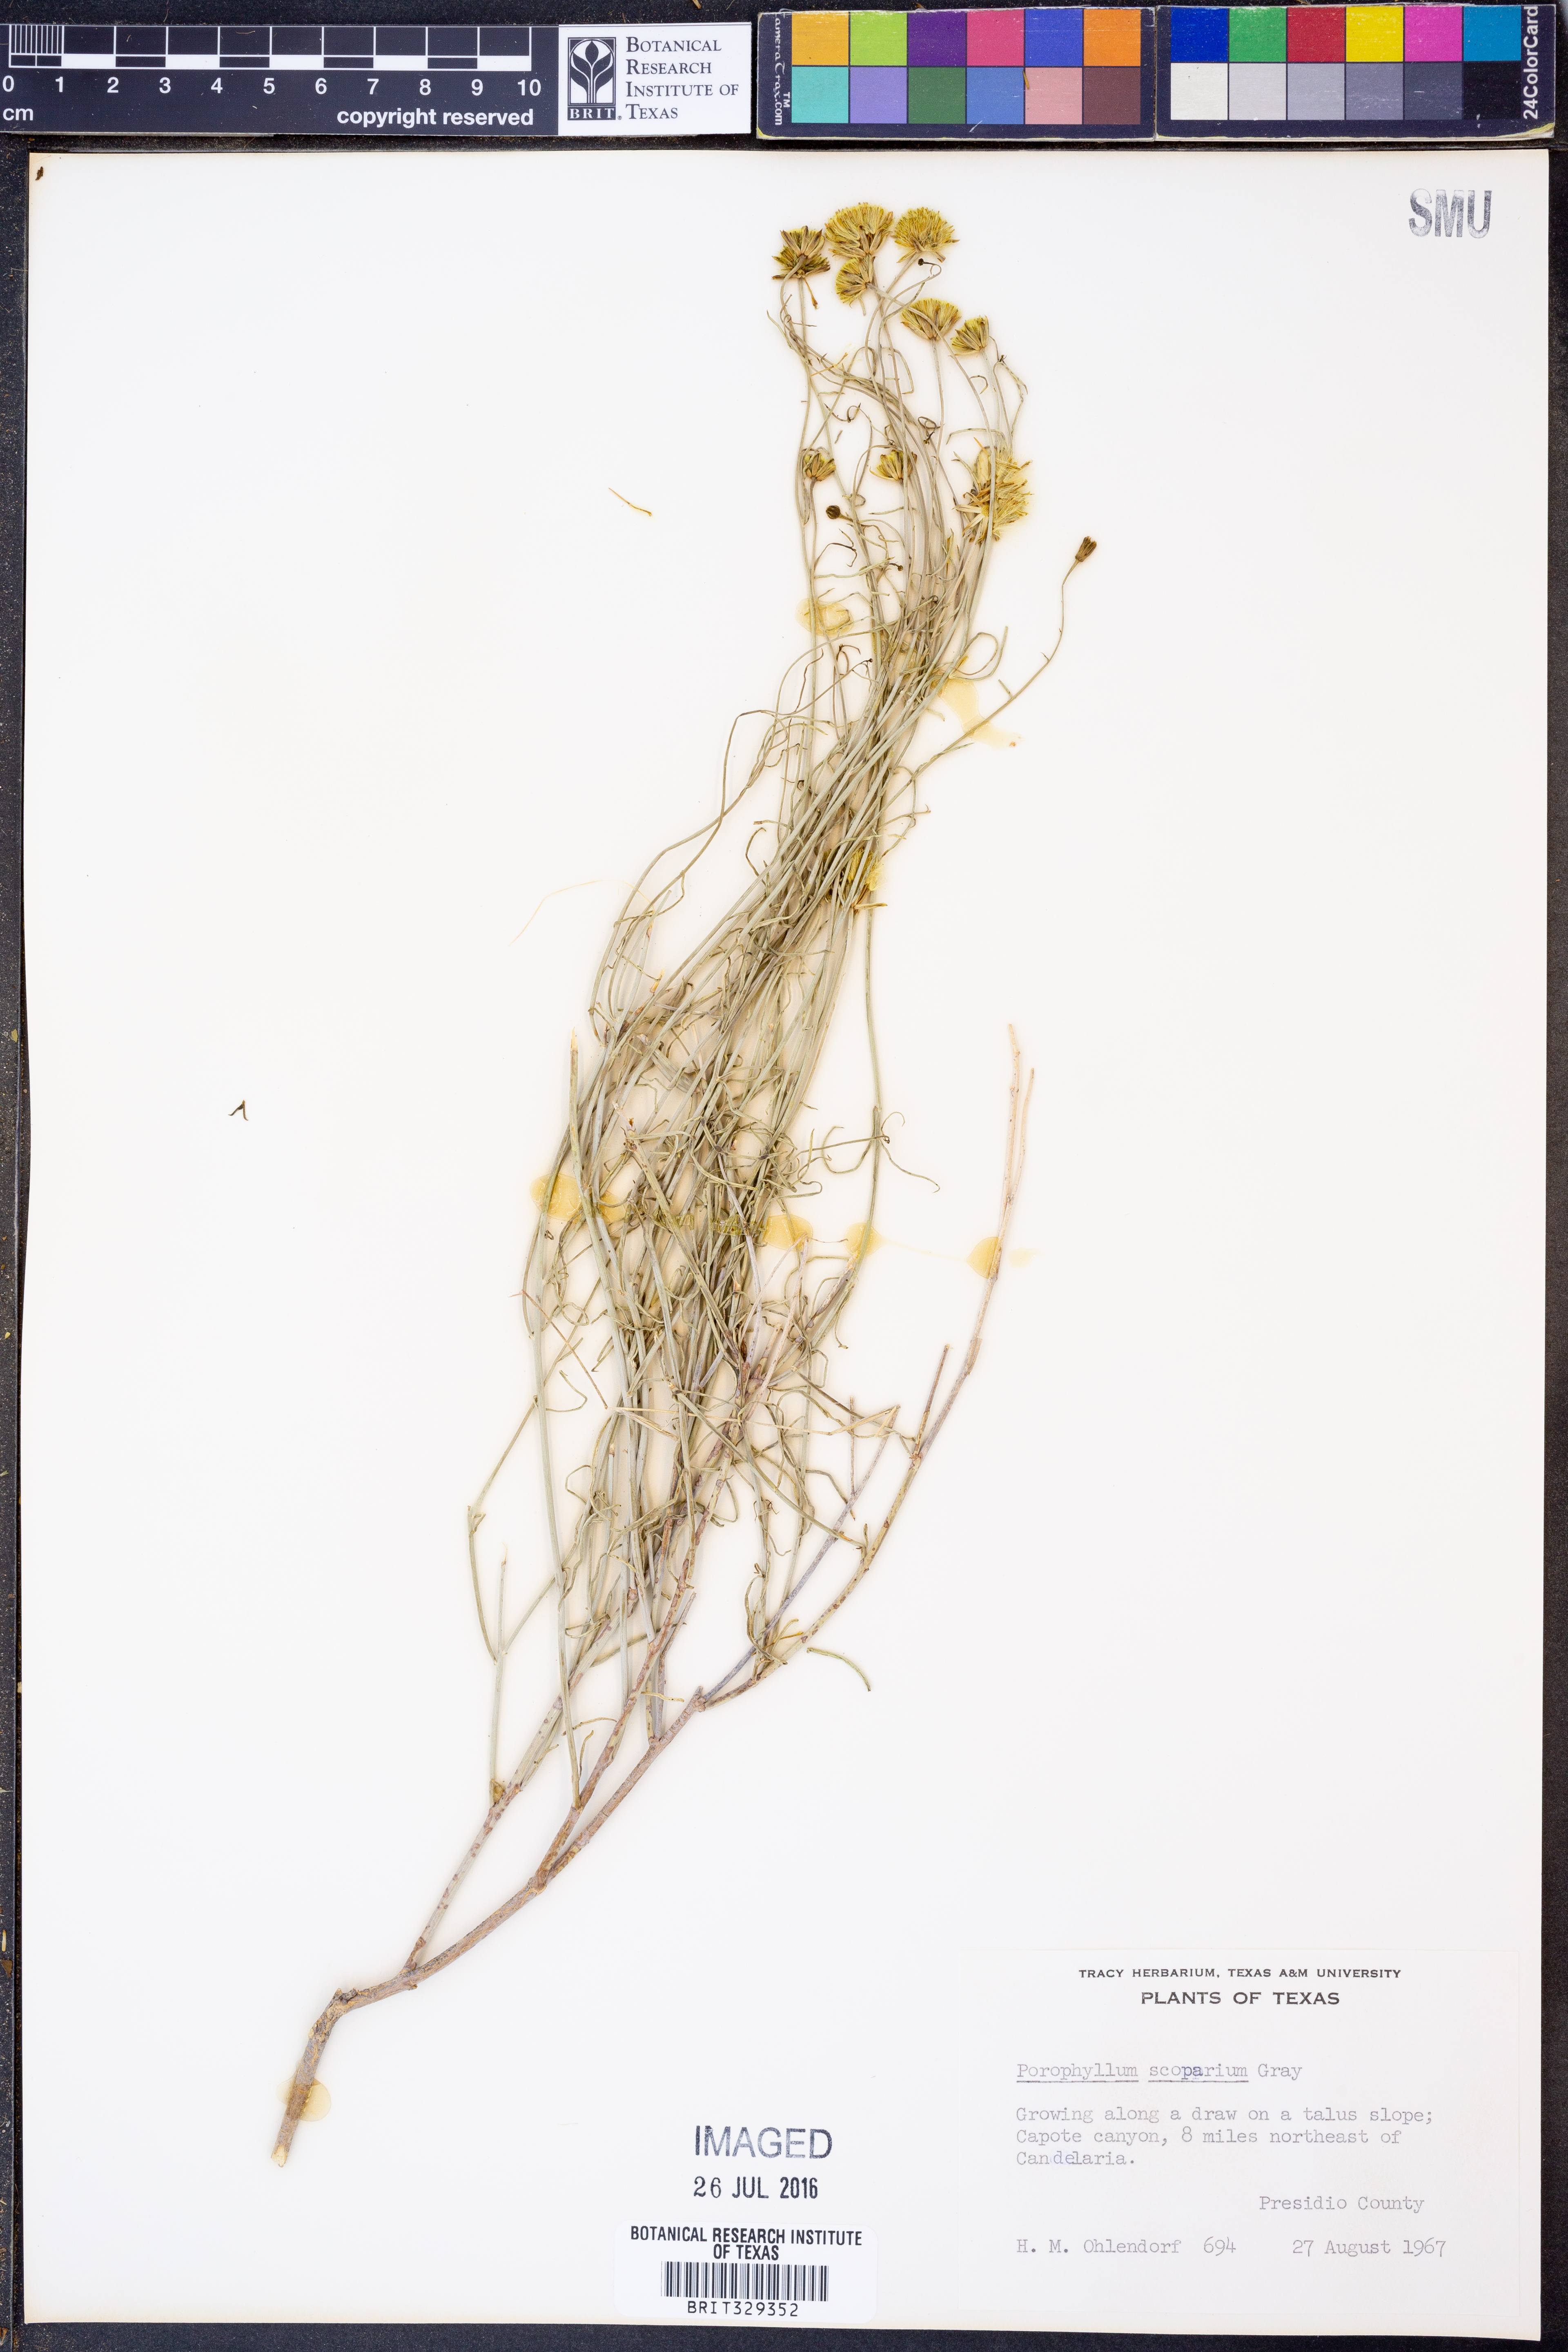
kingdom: Plantae
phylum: Tracheophyta
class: Magnoliopsida
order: Asterales
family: Asteraceae
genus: Porophyllum
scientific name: Porophyllum scoparium
